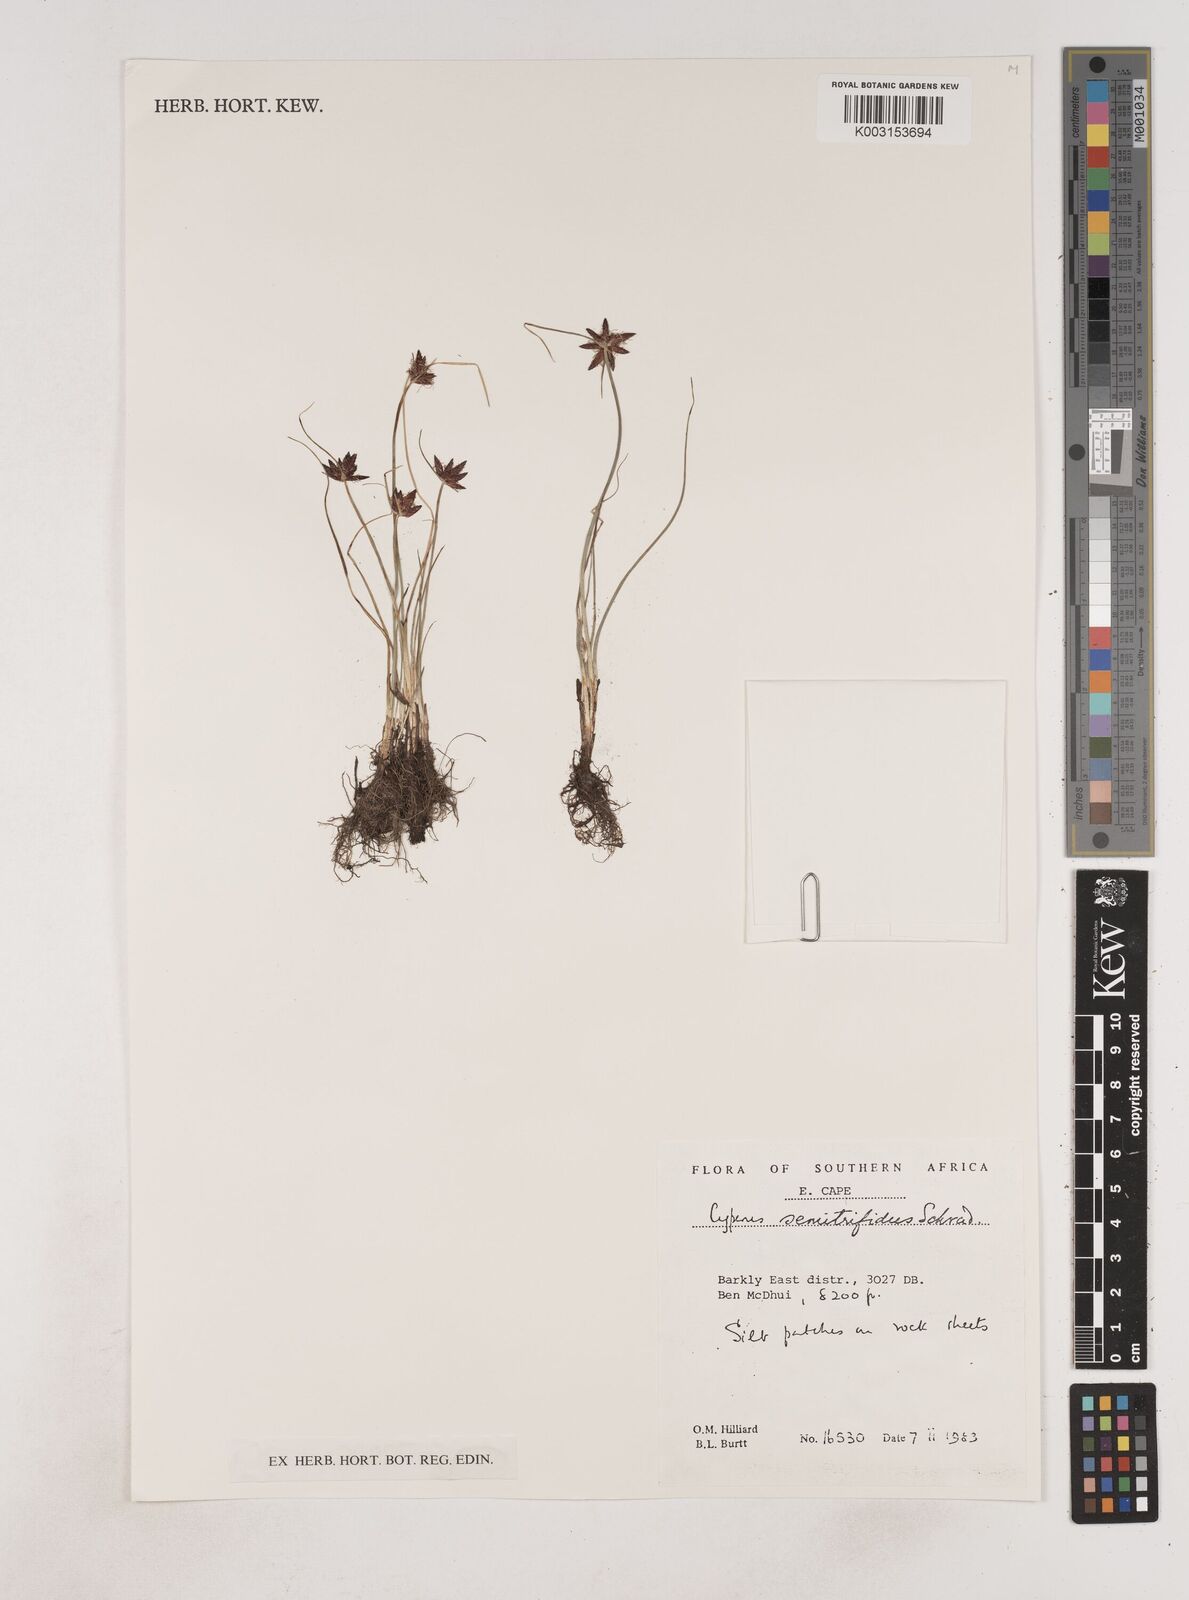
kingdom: Plantae
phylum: Tracheophyta
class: Liliopsida
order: Poales
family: Cyperaceae
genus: Cyperus
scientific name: Cyperus semitrifidus
